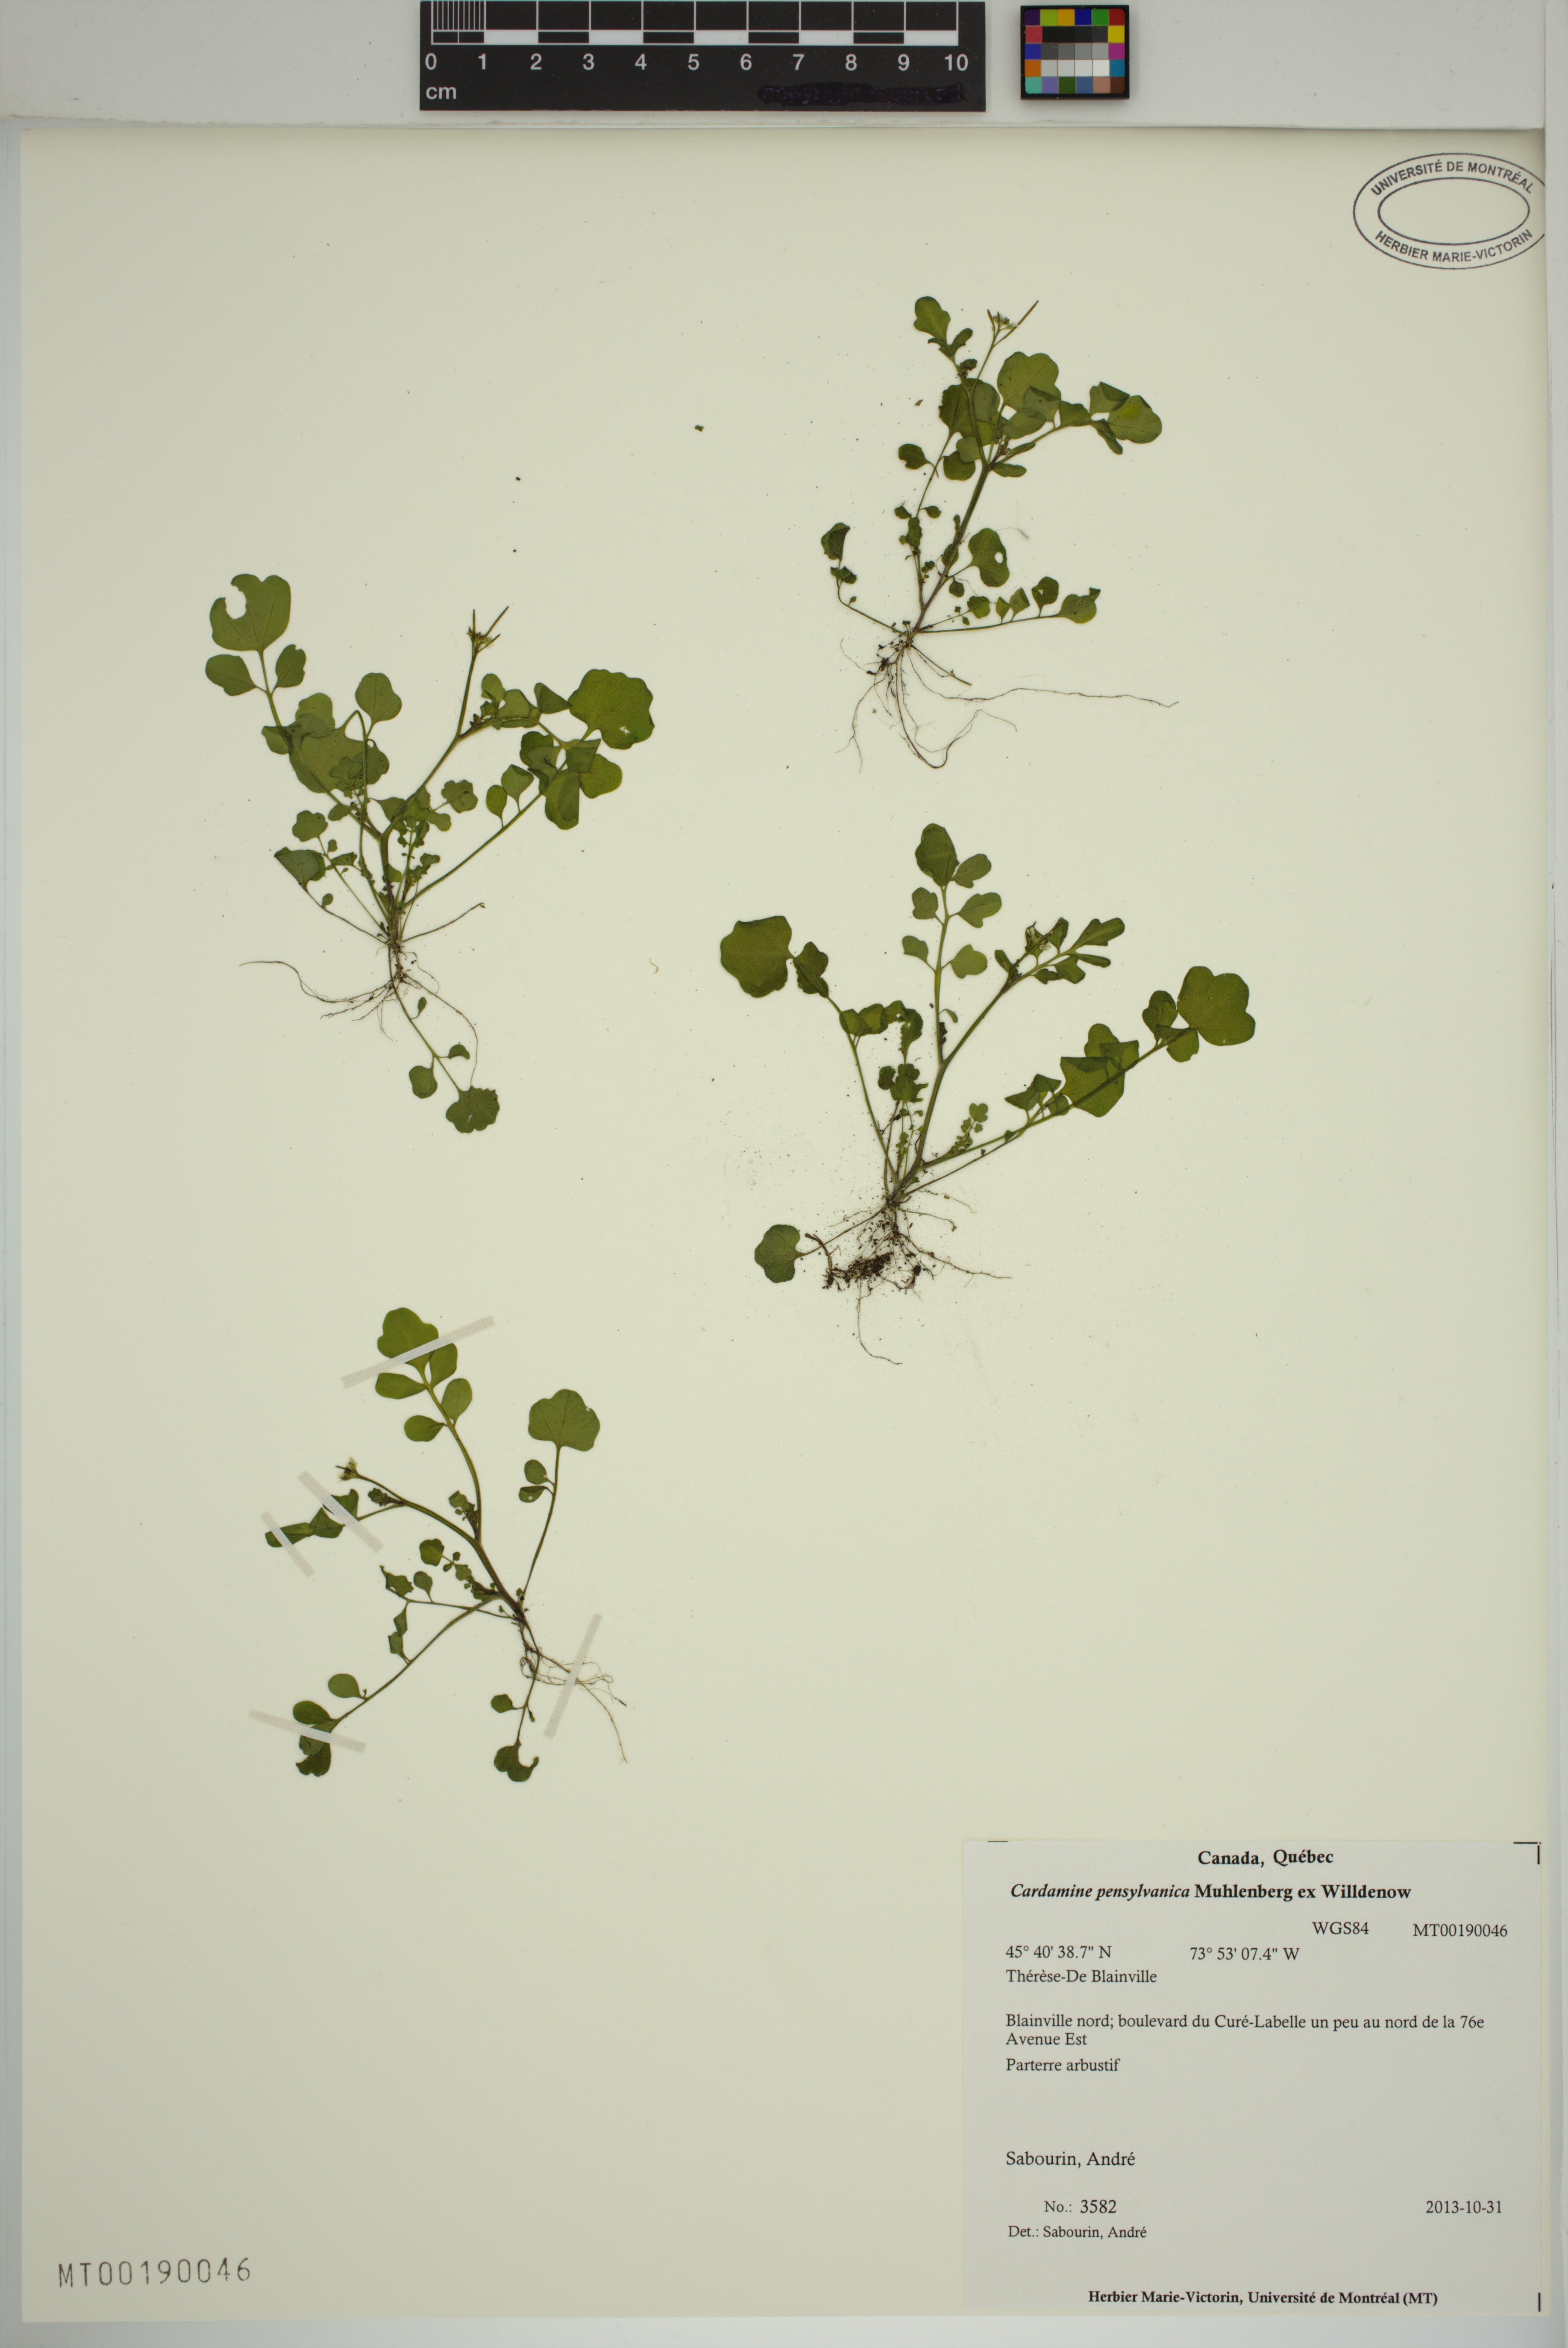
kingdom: Plantae
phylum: Tracheophyta
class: Magnoliopsida
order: Brassicales
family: Brassicaceae
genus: Cardamine
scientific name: Cardamine pensylvanica
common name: Pennsylvania bittercress
